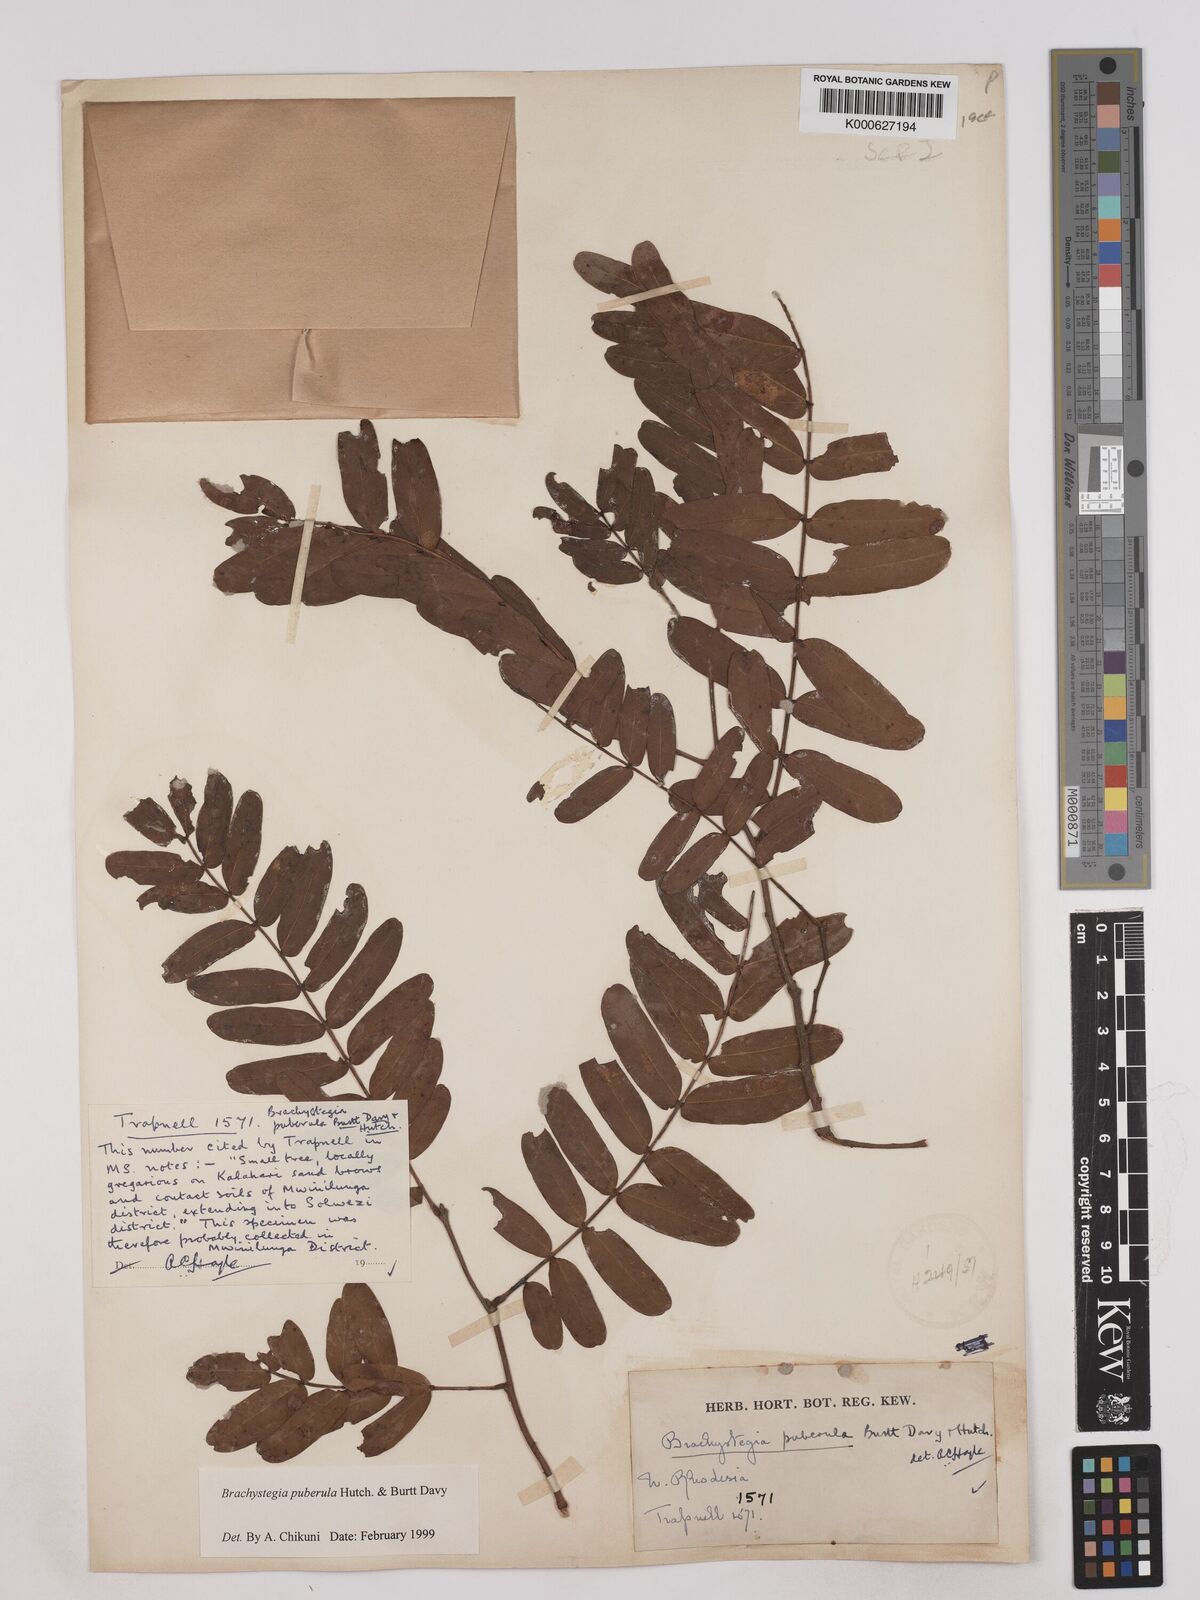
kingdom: Plantae
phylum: Tracheophyta
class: Magnoliopsida
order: Fabales
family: Fabaceae
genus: Brachystegia
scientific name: Brachystegia puberula
